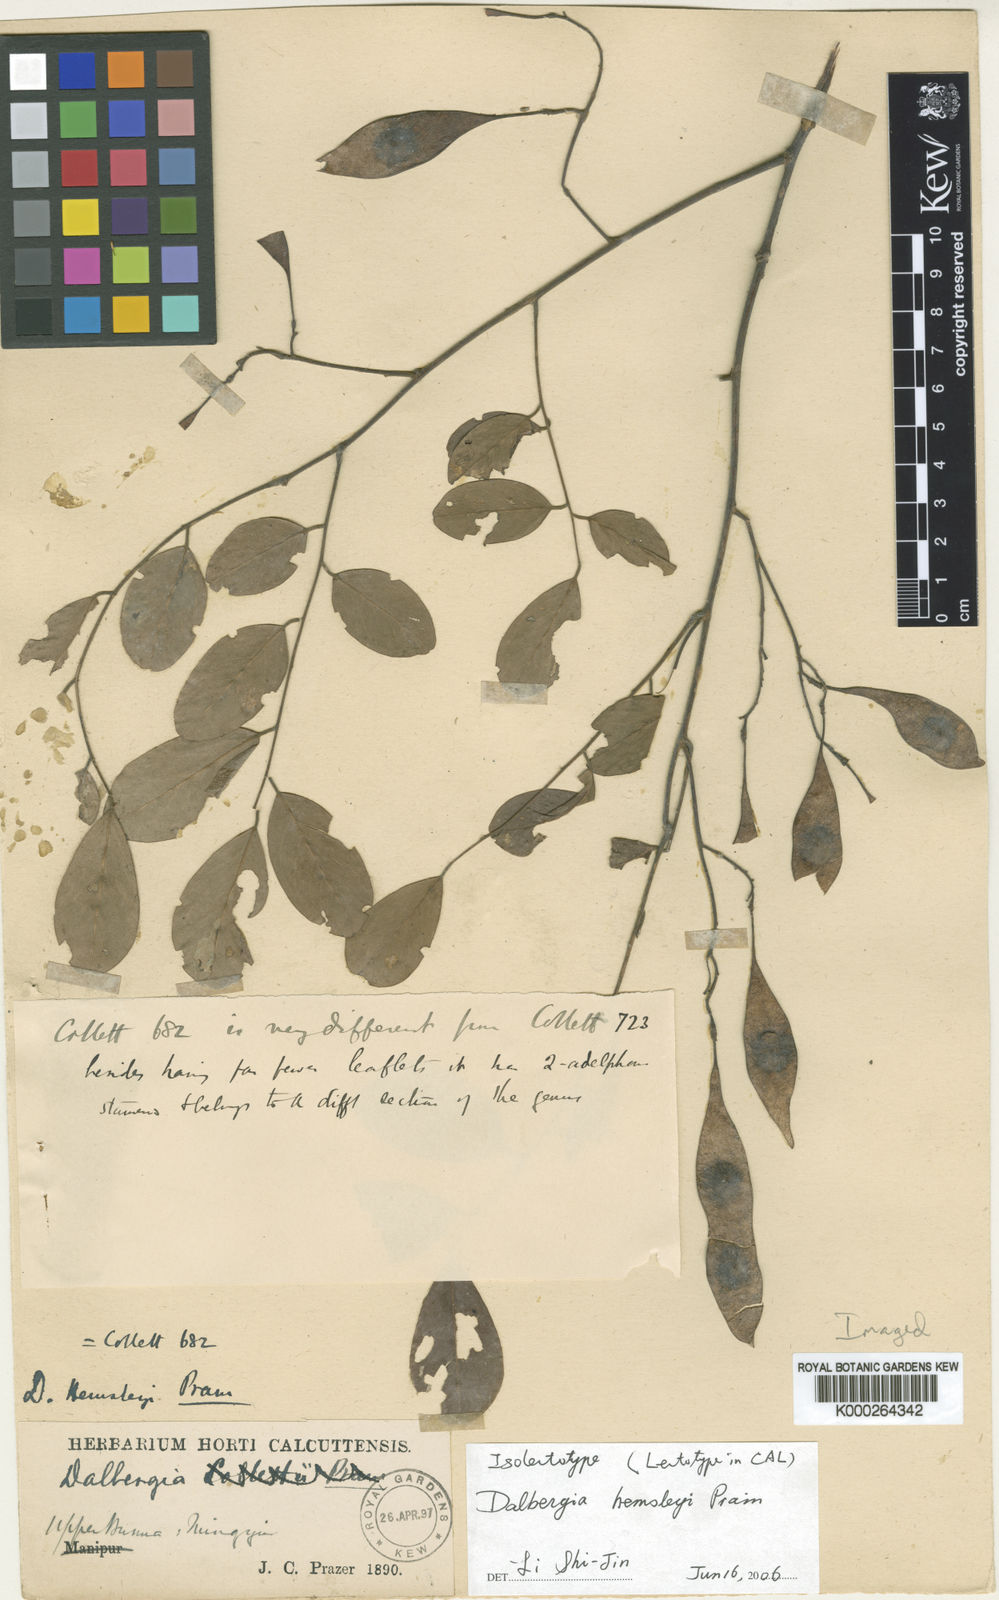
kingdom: Plantae
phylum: Tracheophyta
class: Magnoliopsida
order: Fabales
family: Fabaceae
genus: Dalbergia
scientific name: Dalbergia lanceolaria
